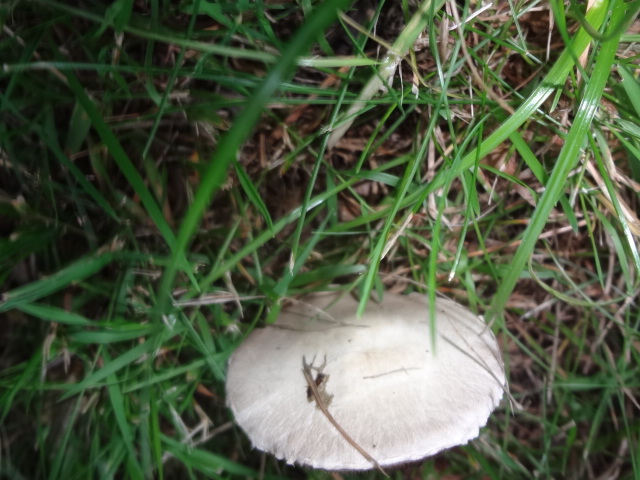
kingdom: Fungi
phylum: Basidiomycota
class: Agaricomycetes
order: Agaricales
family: Agaricaceae
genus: Agaricus
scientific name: Agaricus campestris
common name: mark-champignon
